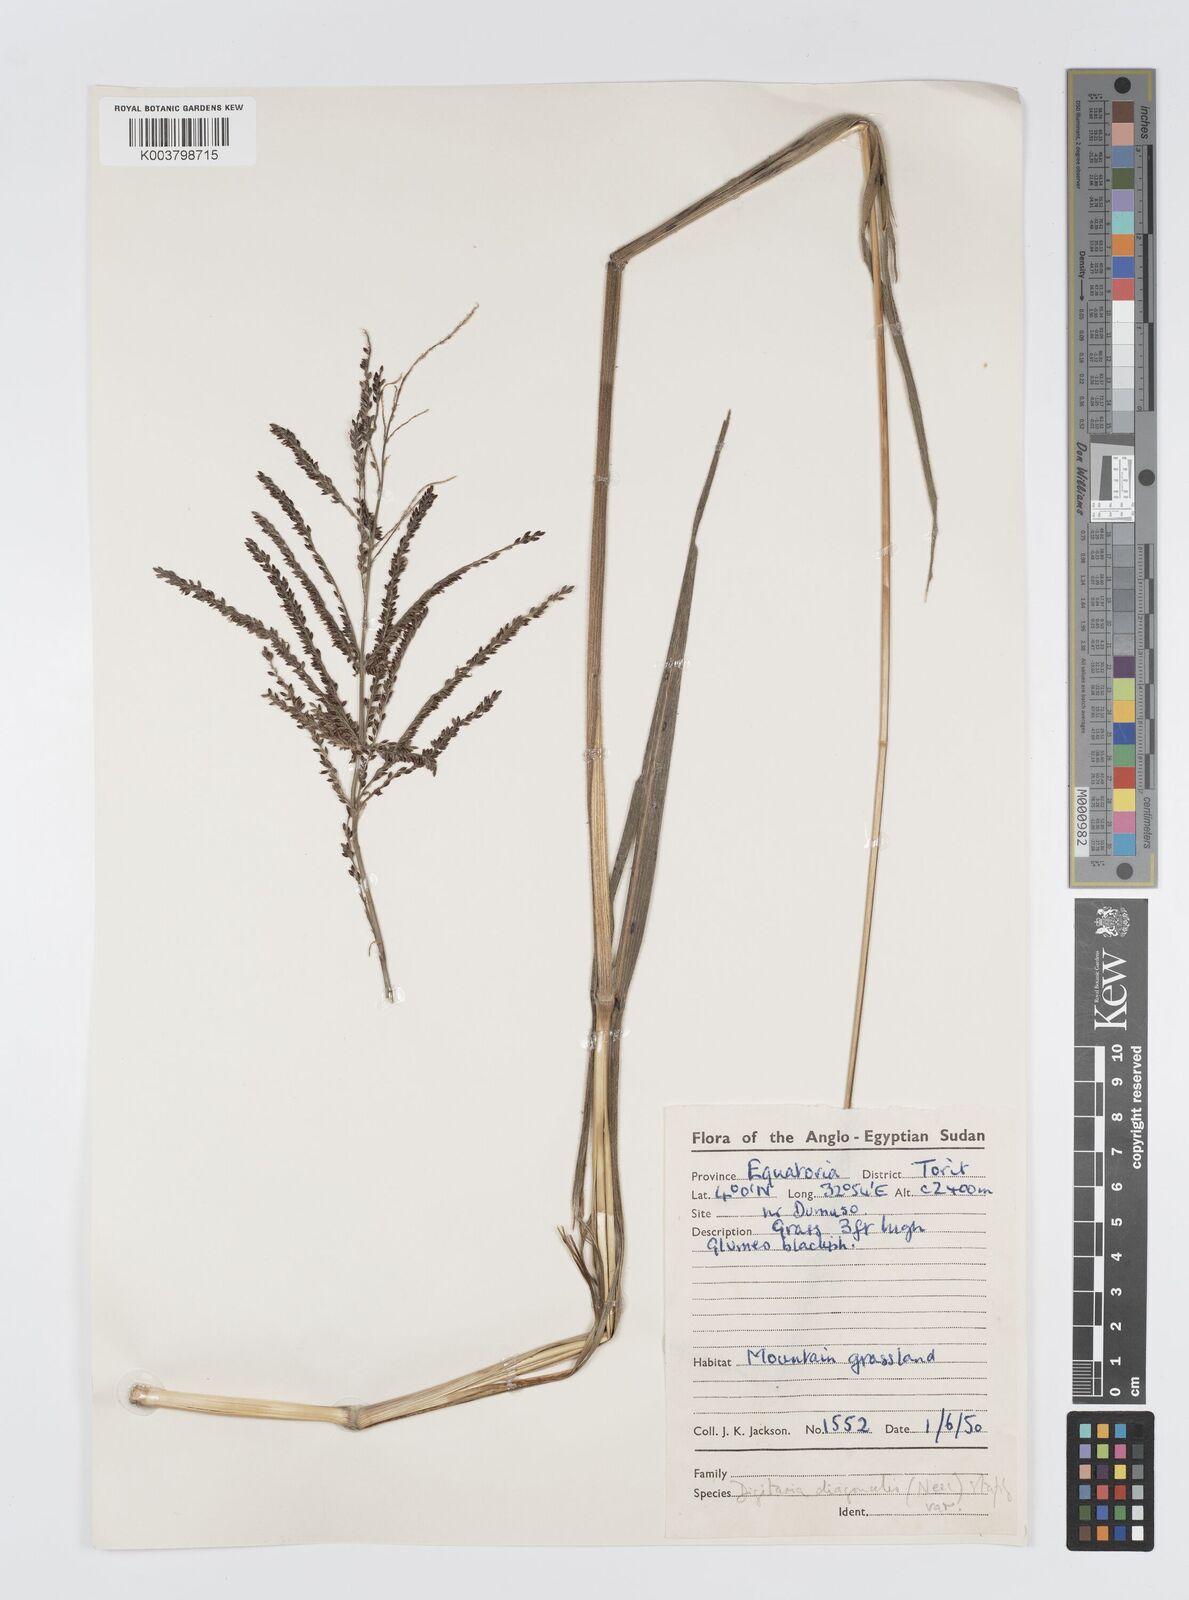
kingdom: Plantae
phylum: Tracheophyta
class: Liliopsida
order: Poales
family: Poaceae
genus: Digitaria
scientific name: Digitaria diagonalis
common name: Brown-seed finger grass
